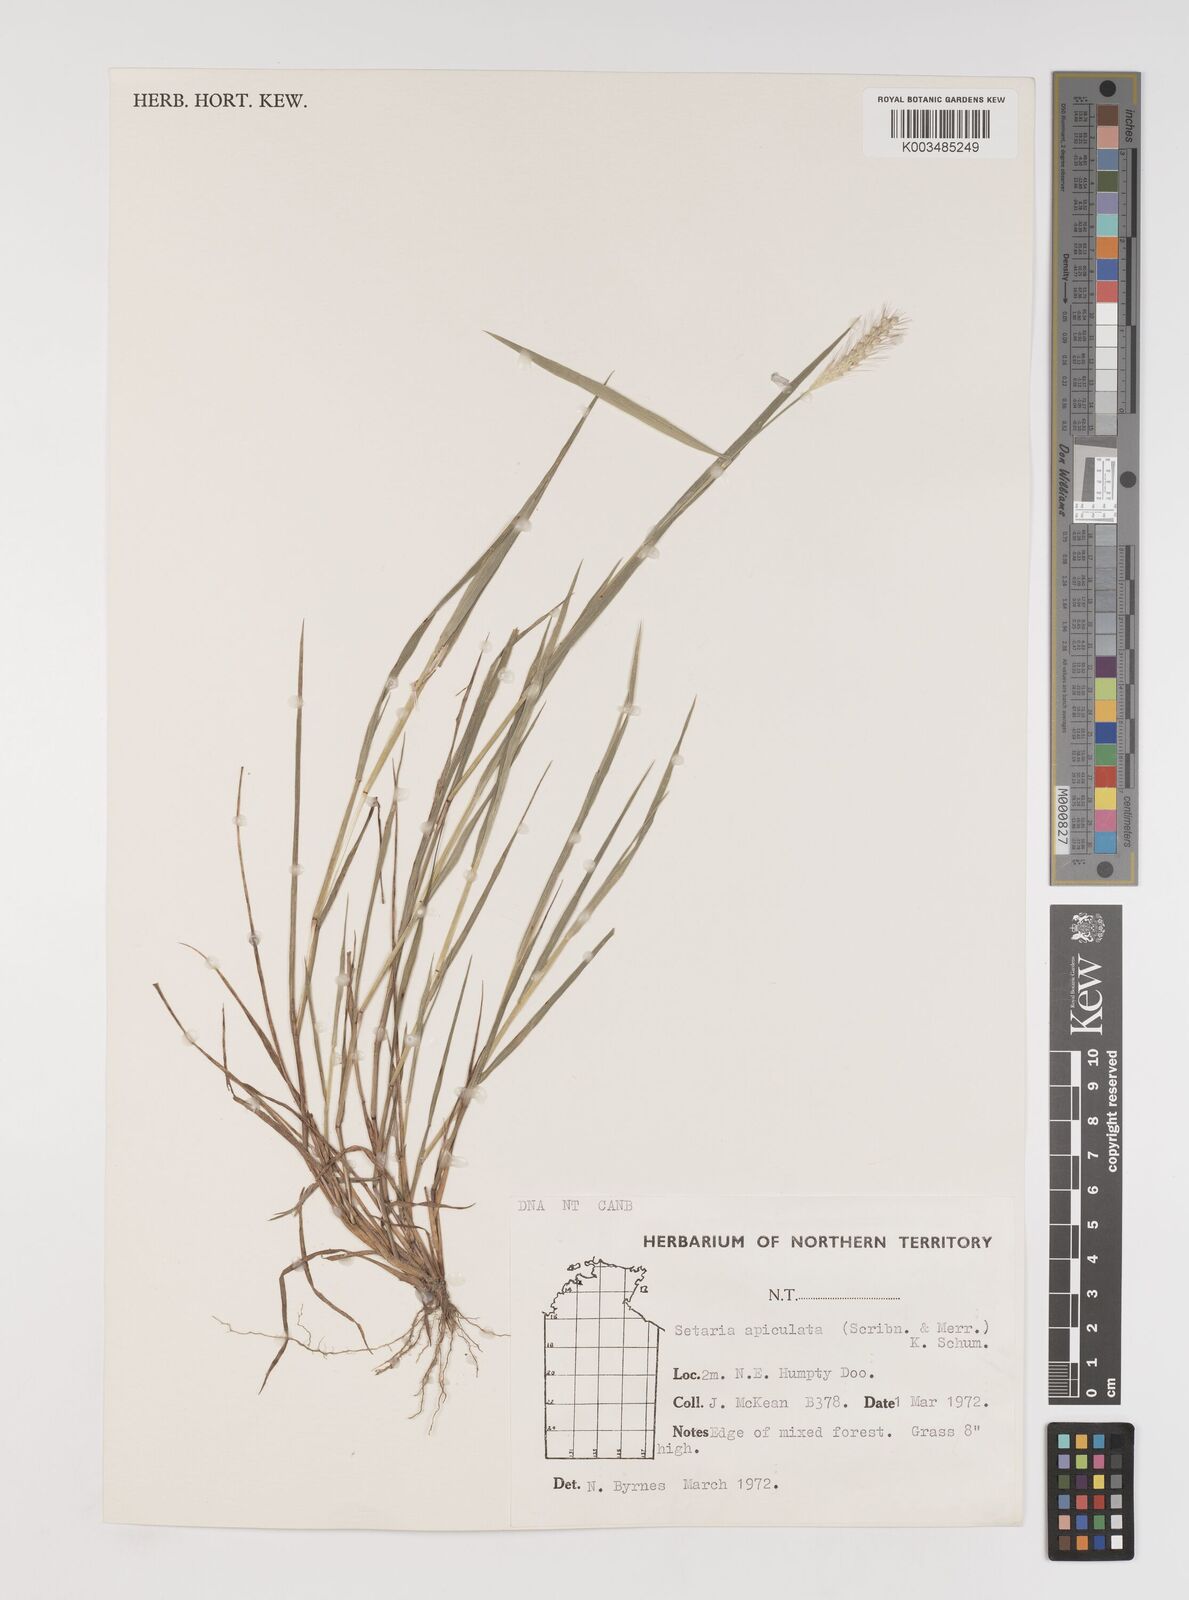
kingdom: Plantae
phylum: Tracheophyta
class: Liliopsida
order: Poales
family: Poaceae
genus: Setaria
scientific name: Setaria apiculata
